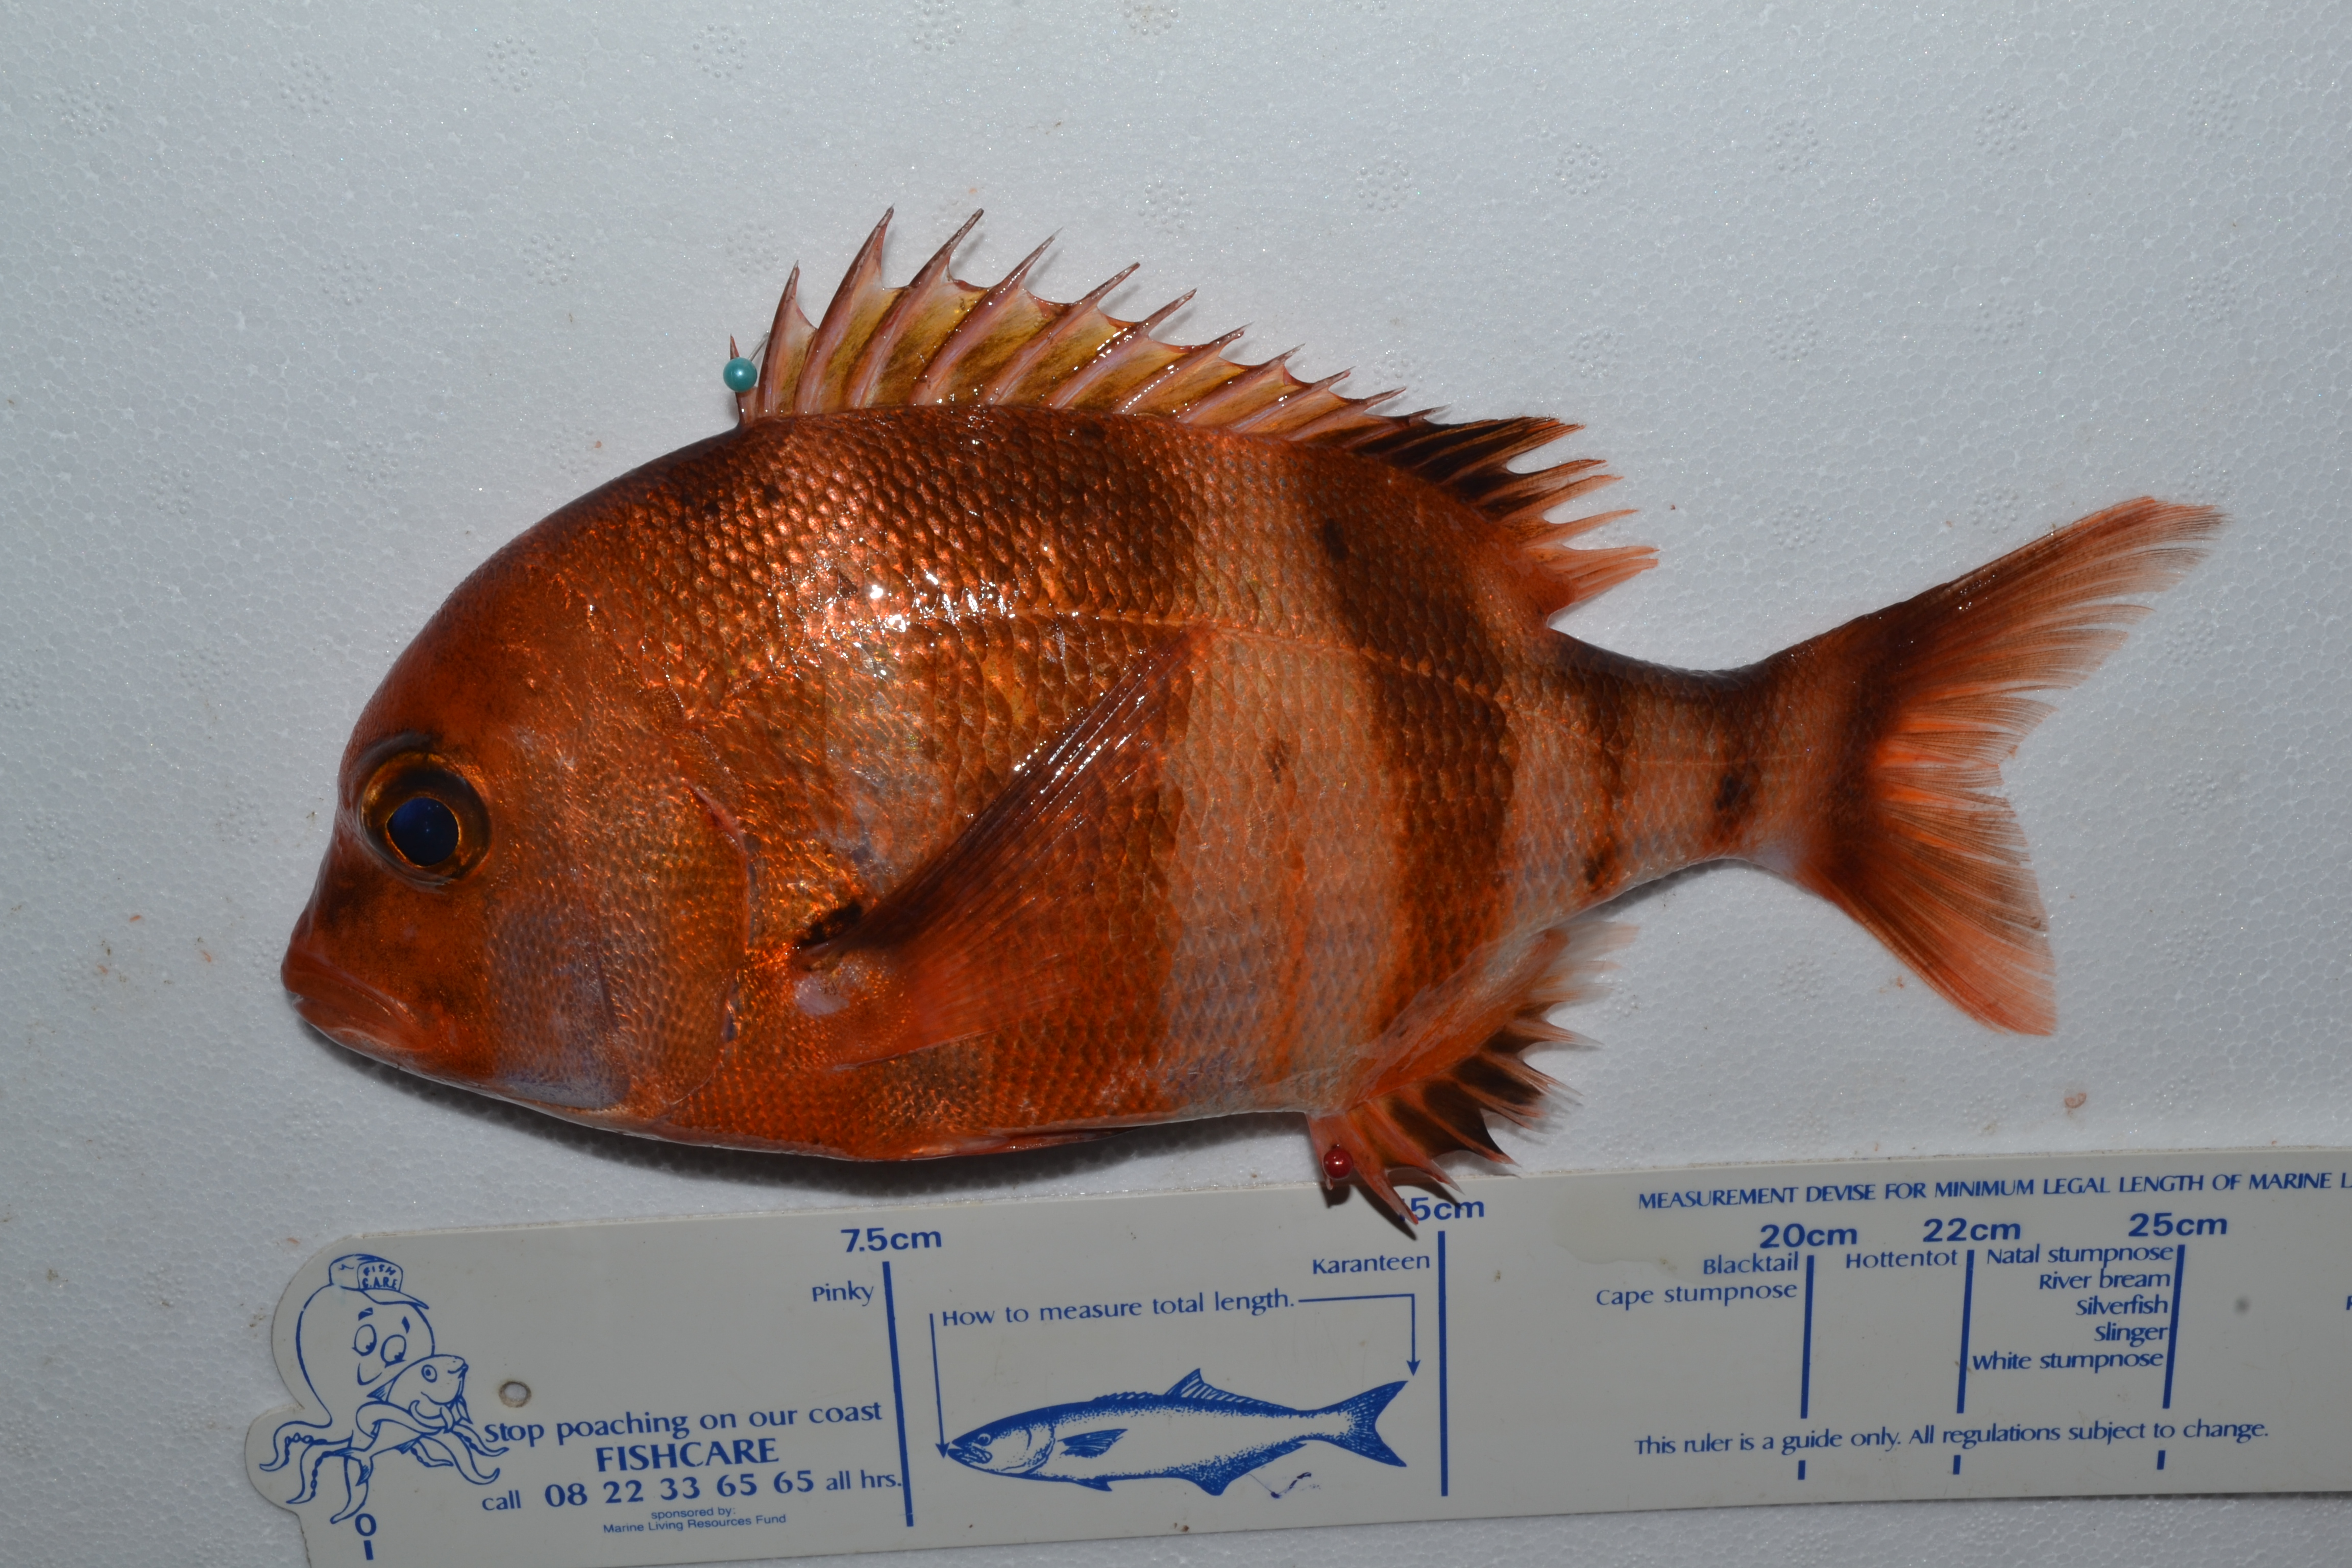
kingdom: Animalia
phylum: Chordata
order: Perciformes
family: Sparidae
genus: Chrysoblephus
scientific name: Chrysoblephus gibbiceps
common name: Red stumpnose
